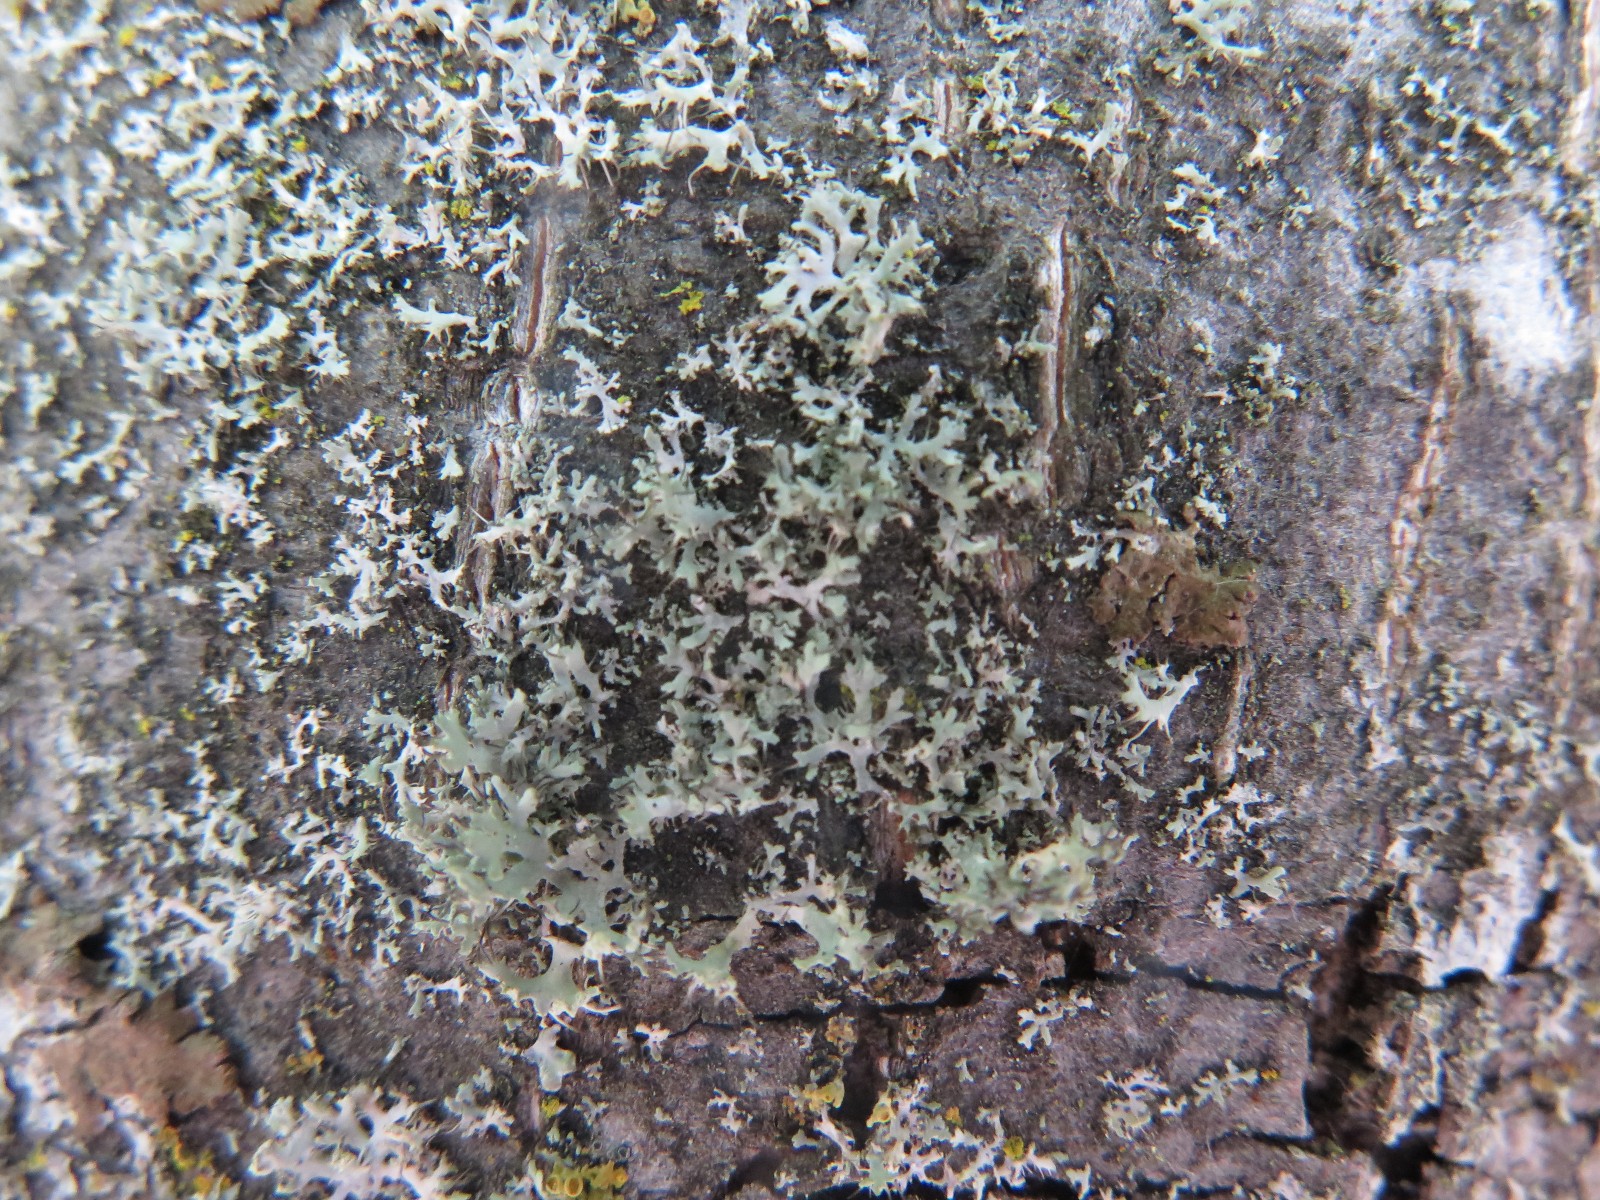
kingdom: Fungi
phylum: Ascomycota
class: Lecanoromycetes
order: Caliciales
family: Physciaceae
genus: Physcia
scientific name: Physcia tenella
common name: spæd rosetlav
